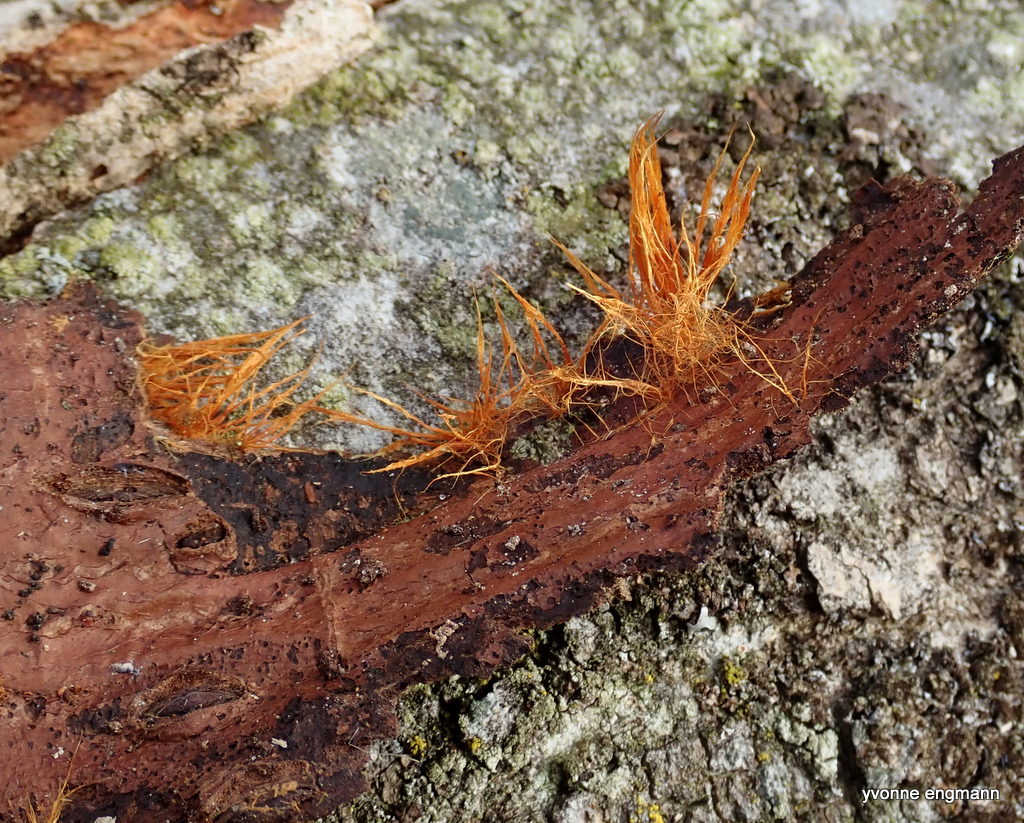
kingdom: Fungi
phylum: Basidiomycota
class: Agaricomycetes
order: Agaricales
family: Psathyrellaceae
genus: Ozonium
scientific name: Ozonium
